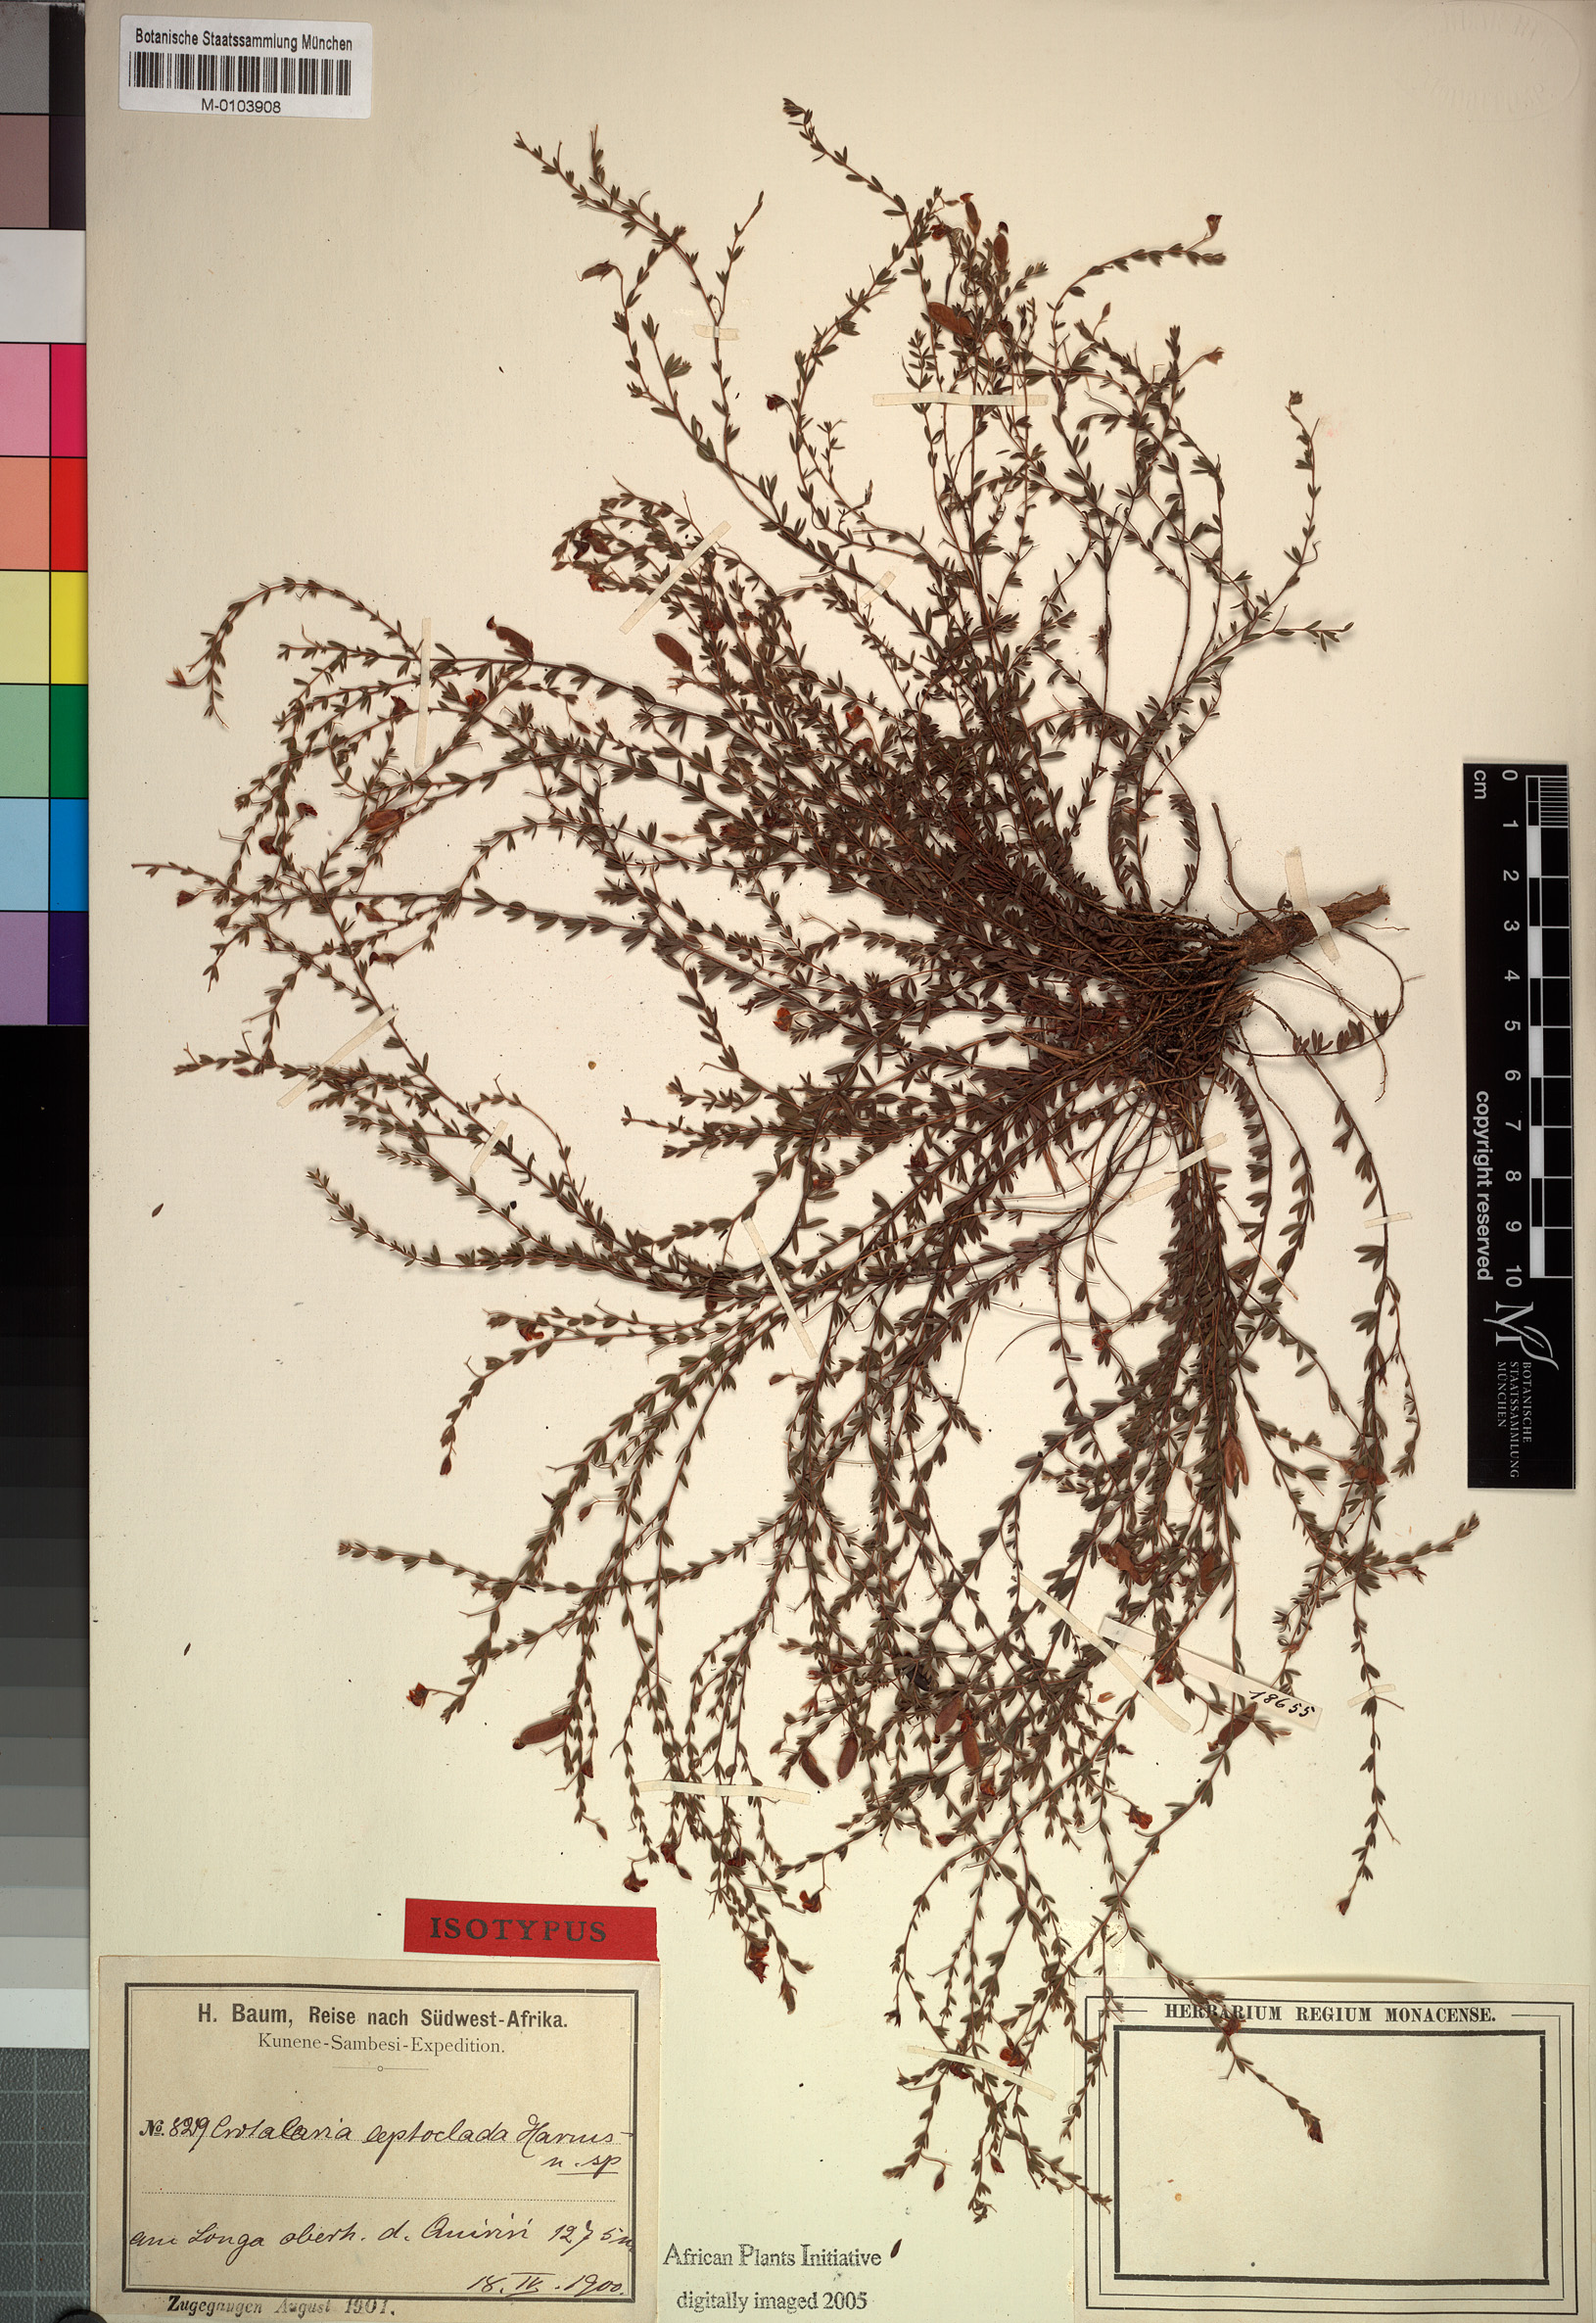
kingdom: Plantae
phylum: Tracheophyta
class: Magnoliopsida
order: Fabales
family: Fabaceae
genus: Crotalaria
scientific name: Crotalaria leptoclada
